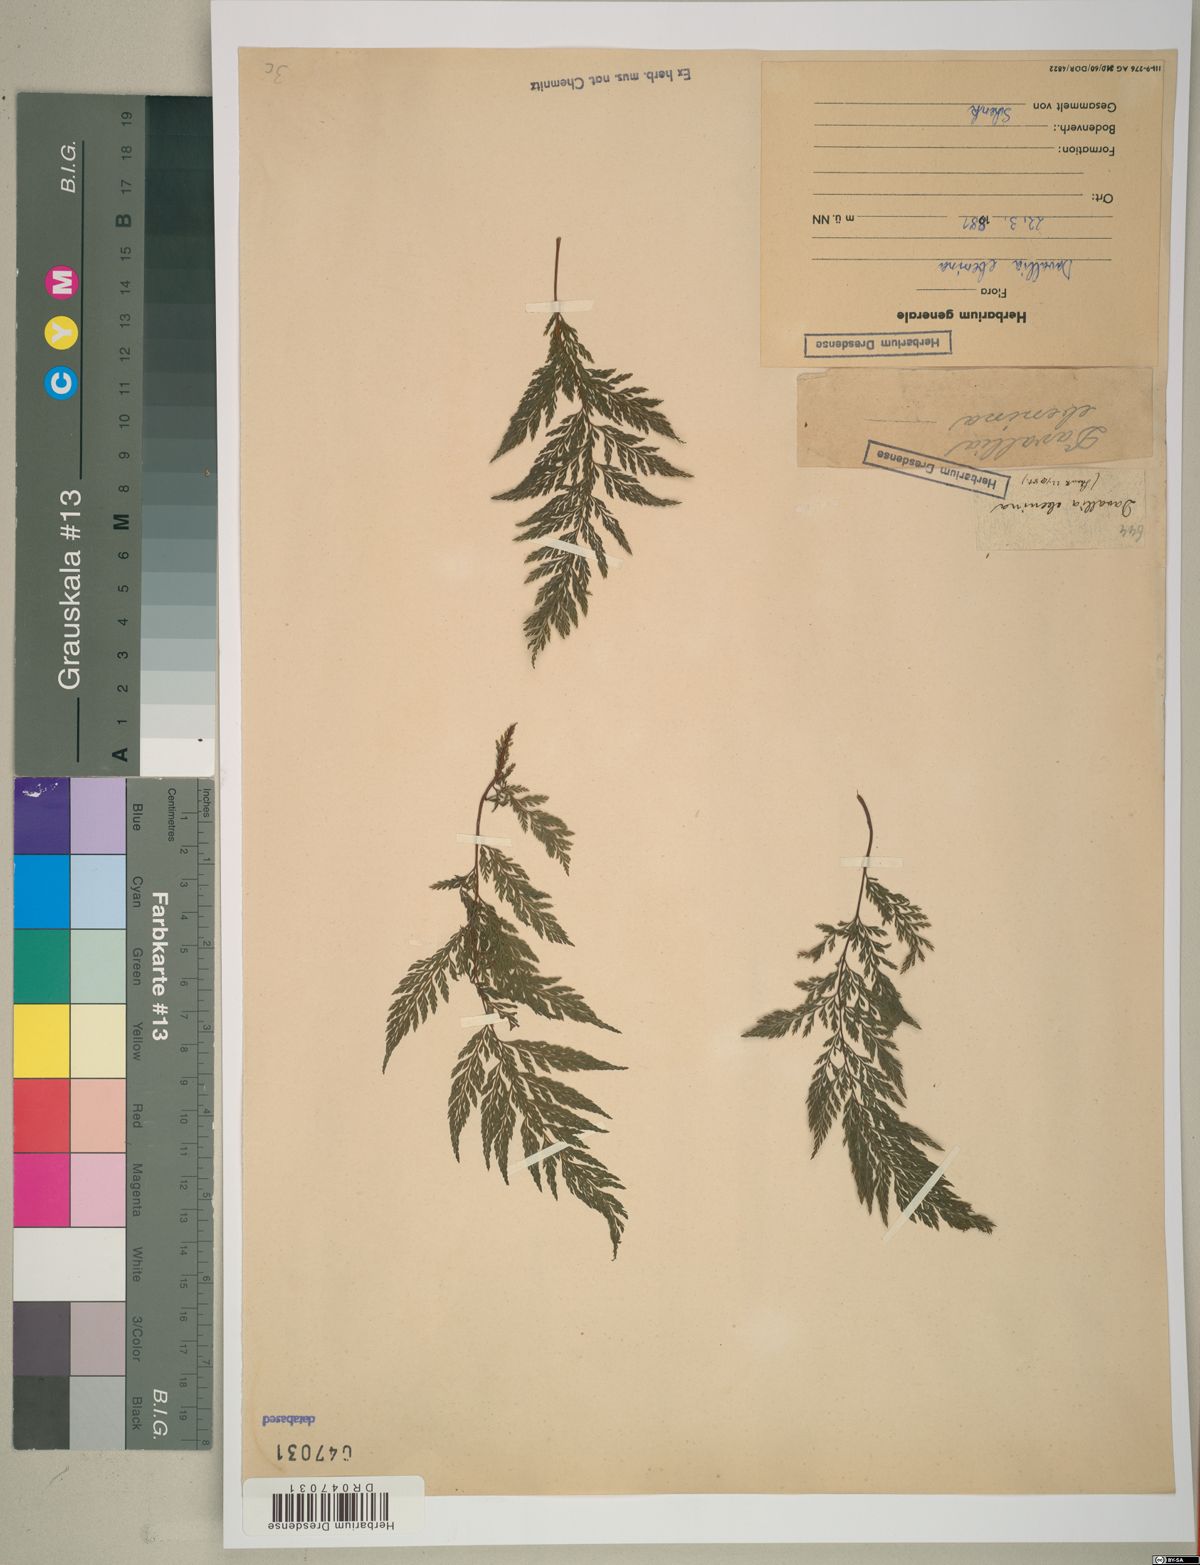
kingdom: Plantae
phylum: Tracheophyta
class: Polypodiopsida
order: Polypodiales
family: Davalliaceae
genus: Davallia
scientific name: Davallia
